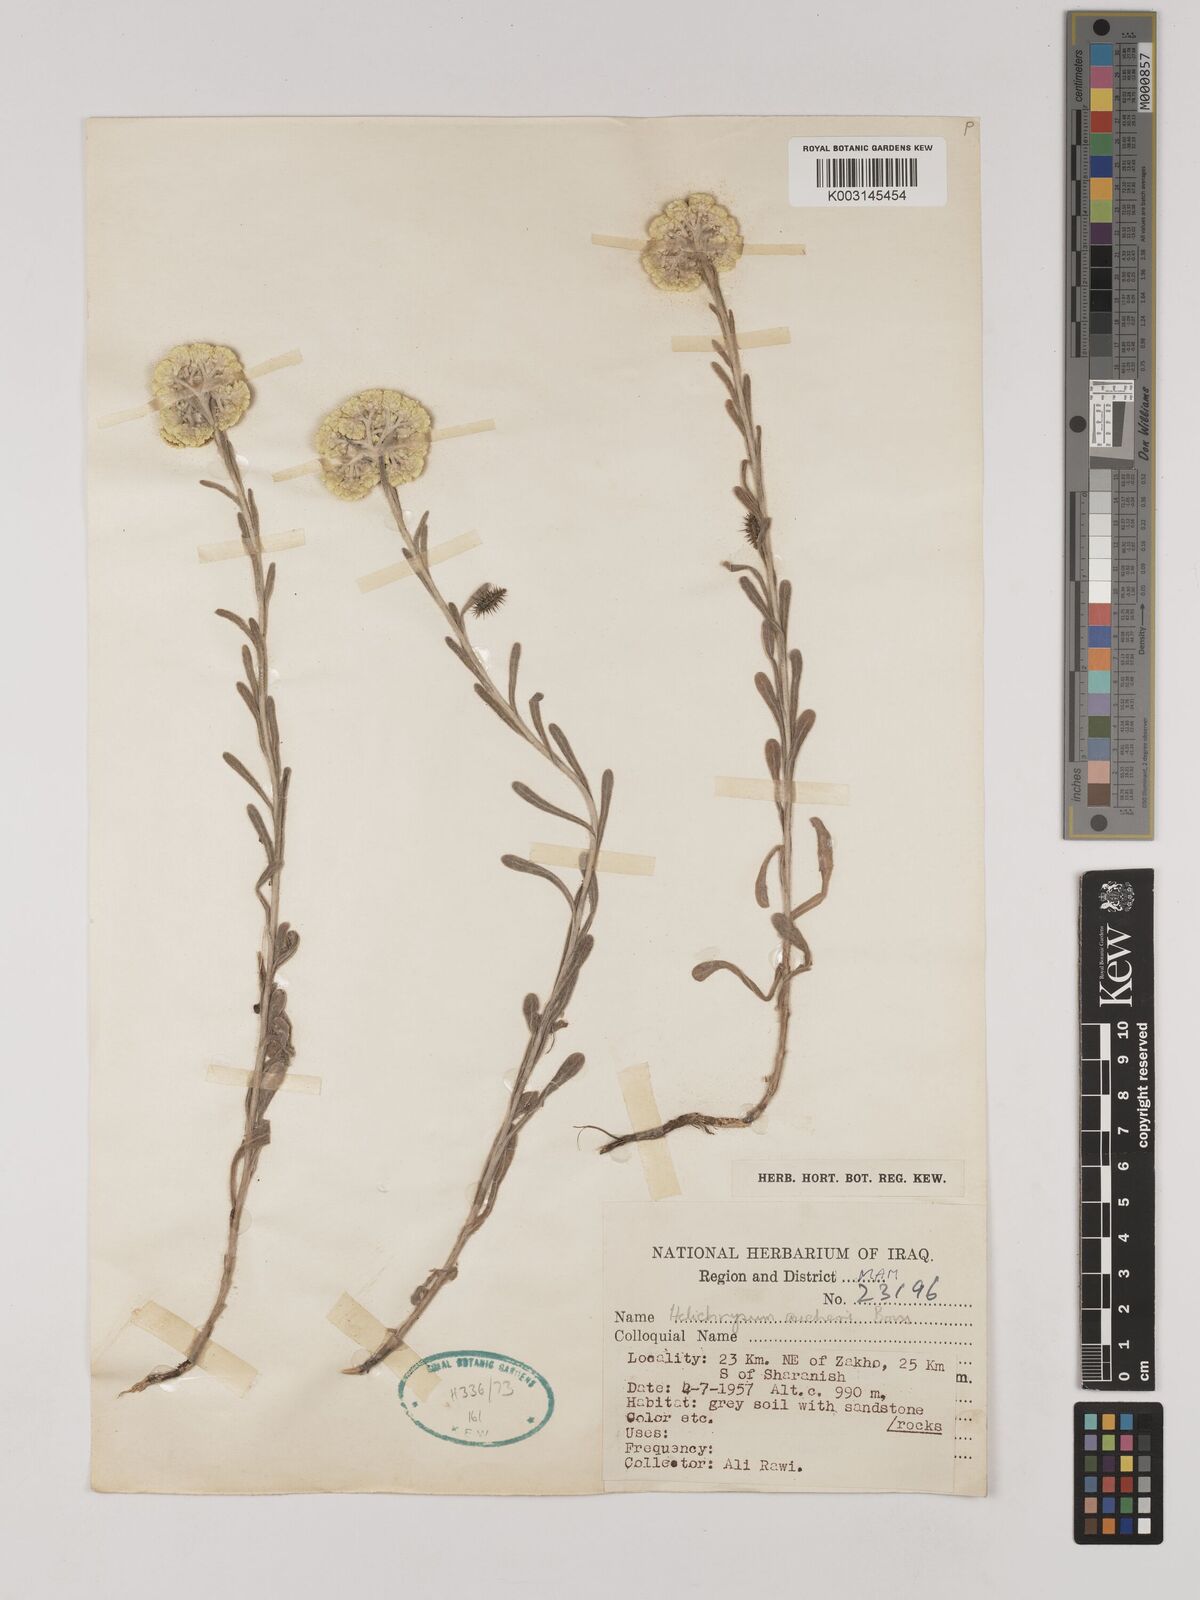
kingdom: Plantae
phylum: Tracheophyta
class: Magnoliopsida
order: Asterales
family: Asteraceae
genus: Helichrysum
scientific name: Helichrysum arenarium
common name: Strawflower
